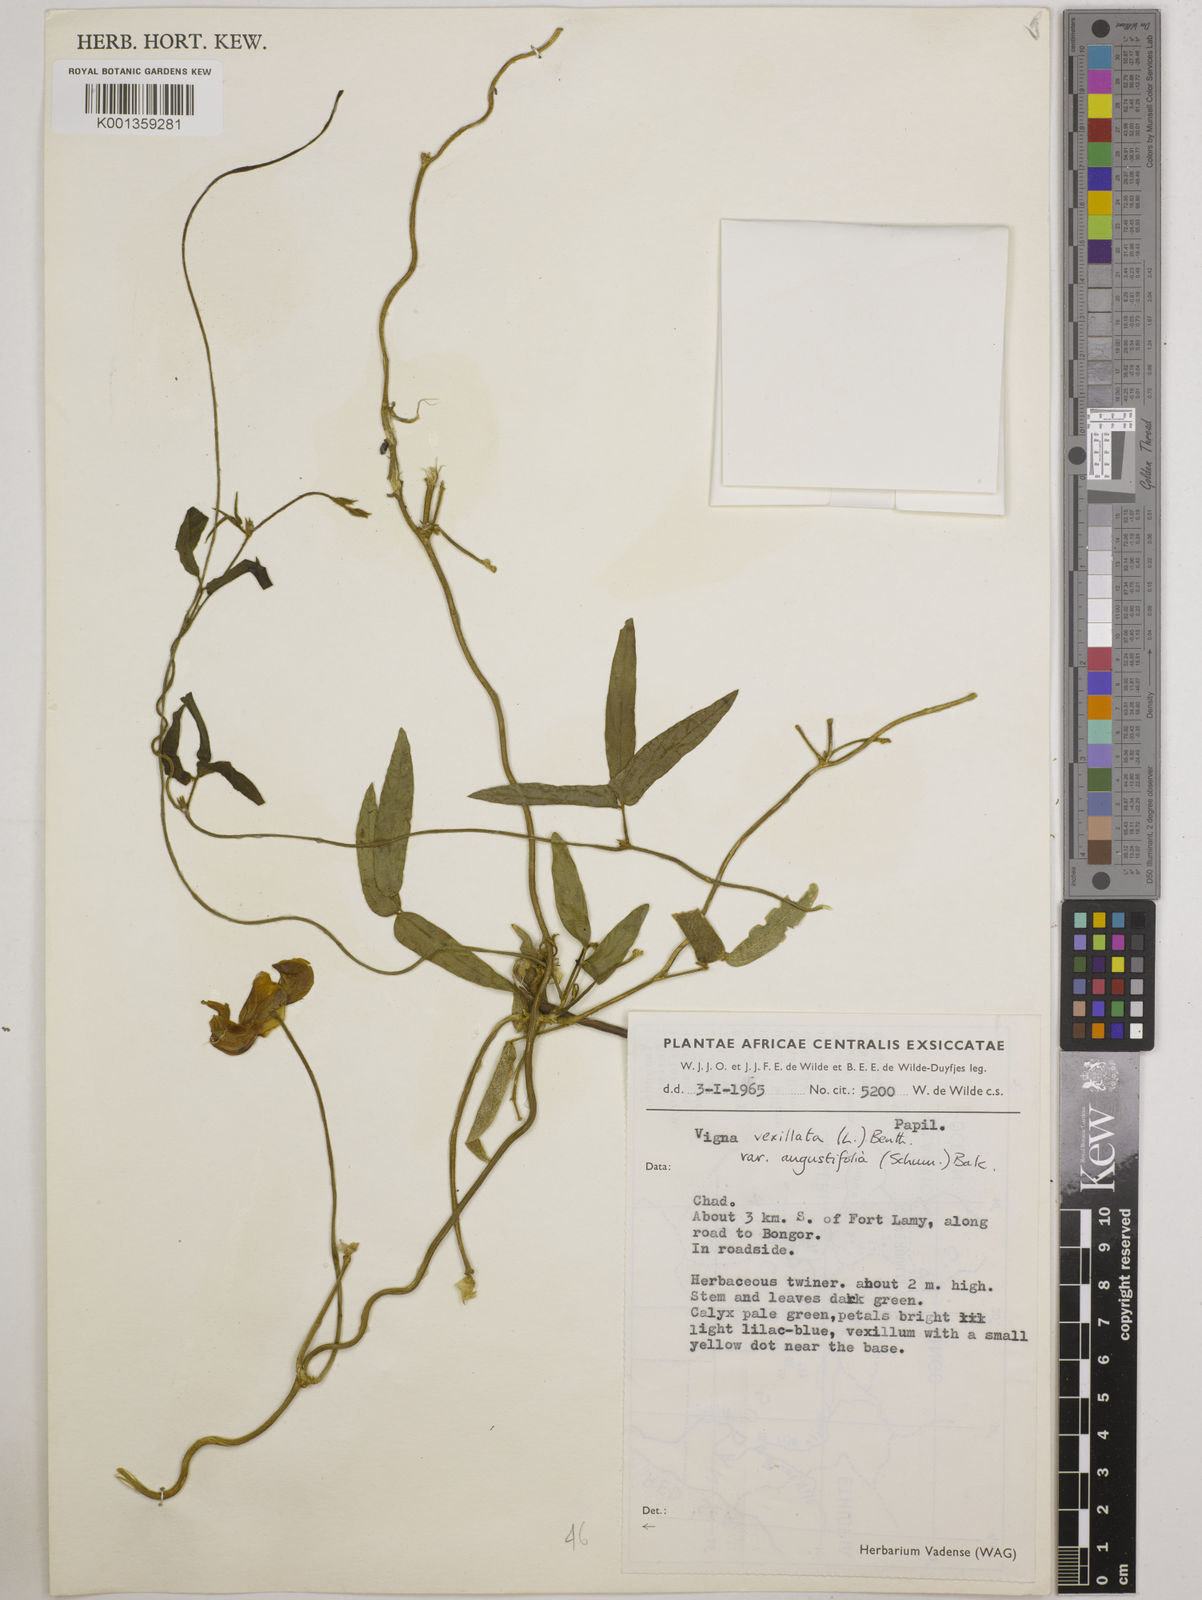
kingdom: Plantae
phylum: Tracheophyta
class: Magnoliopsida
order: Fabales
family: Fabaceae
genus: Vigna
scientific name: Vigna vexillata
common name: Zombi pea
